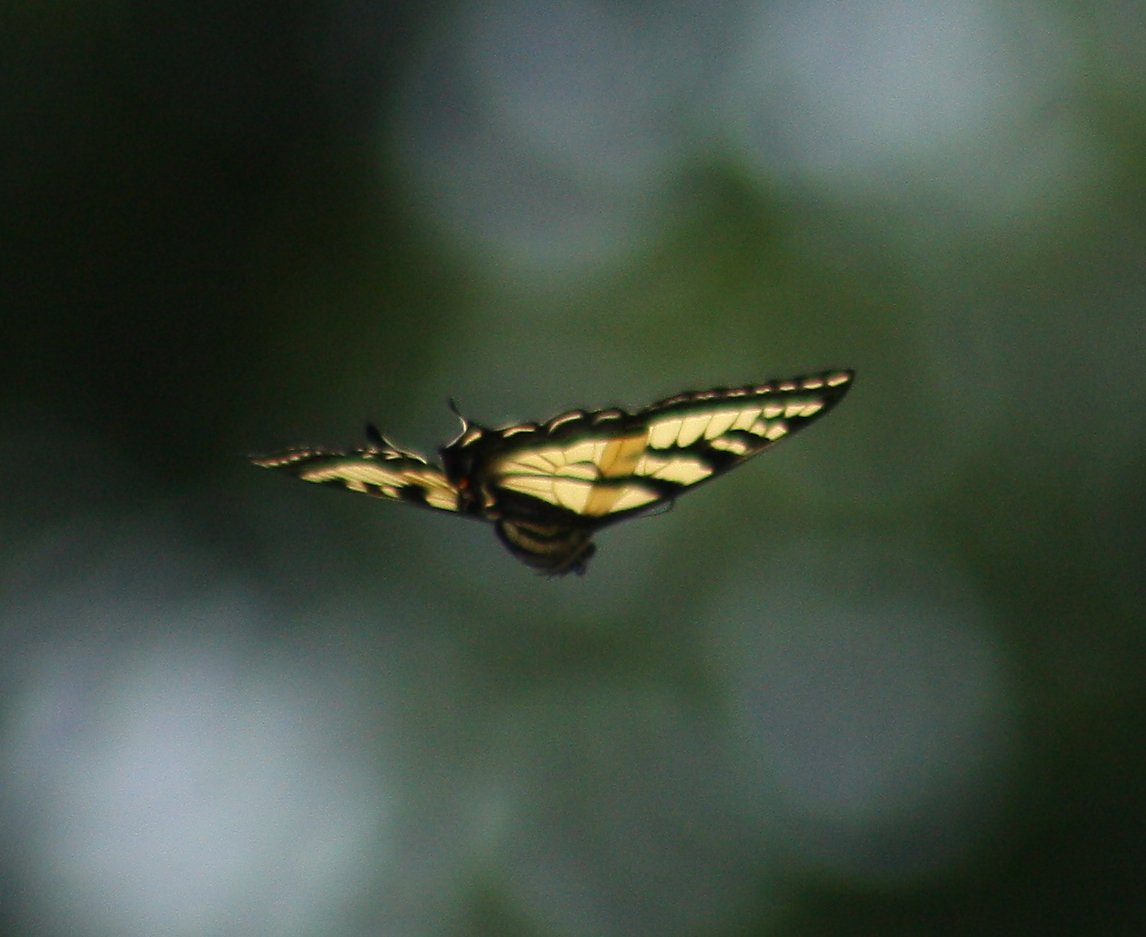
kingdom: Animalia
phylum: Arthropoda
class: Insecta
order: Lepidoptera
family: Papilionidae
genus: Pterourus
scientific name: Pterourus rutulus
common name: Western Tiger Swallowtail
